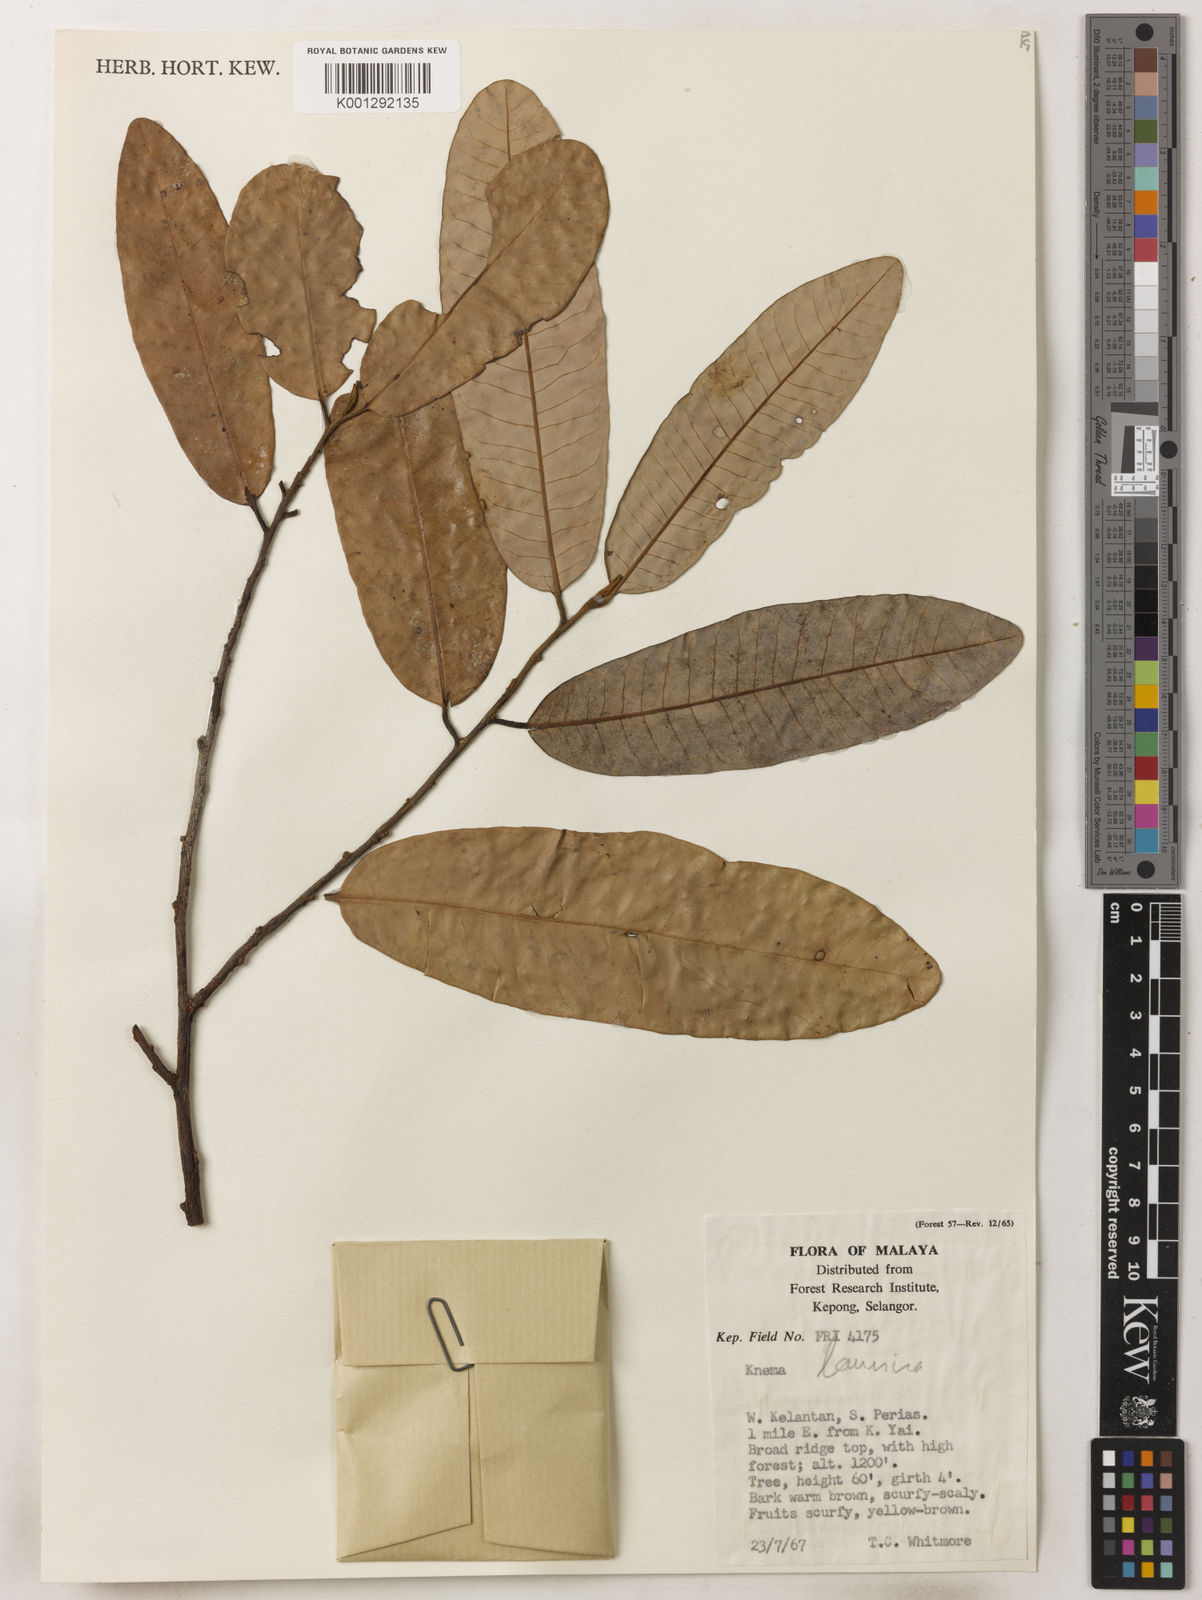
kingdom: Plantae
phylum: Tracheophyta
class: Magnoliopsida
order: Magnoliales
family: Myristicaceae
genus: Knema
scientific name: Knema laurina
